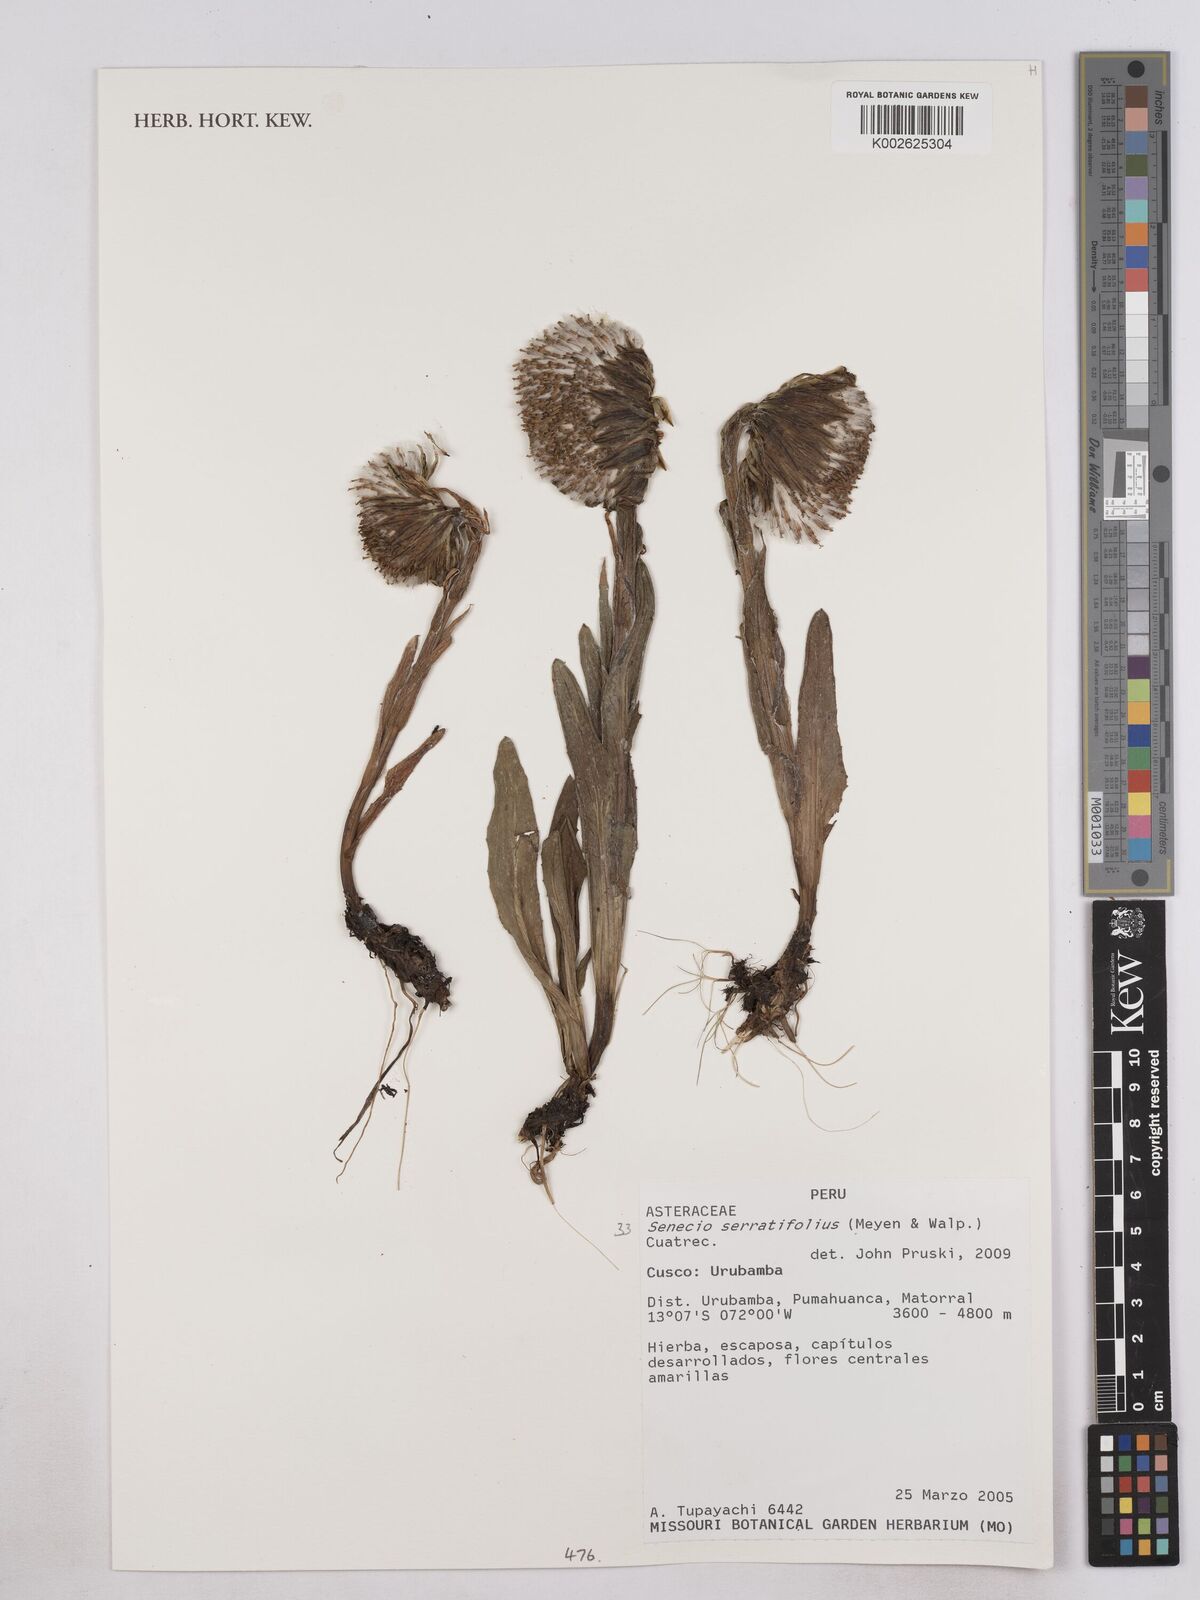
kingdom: Plantae
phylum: Tracheophyta
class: Magnoliopsida
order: Asterales
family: Asteraceae
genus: Senecio
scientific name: Senecio serratifolius
